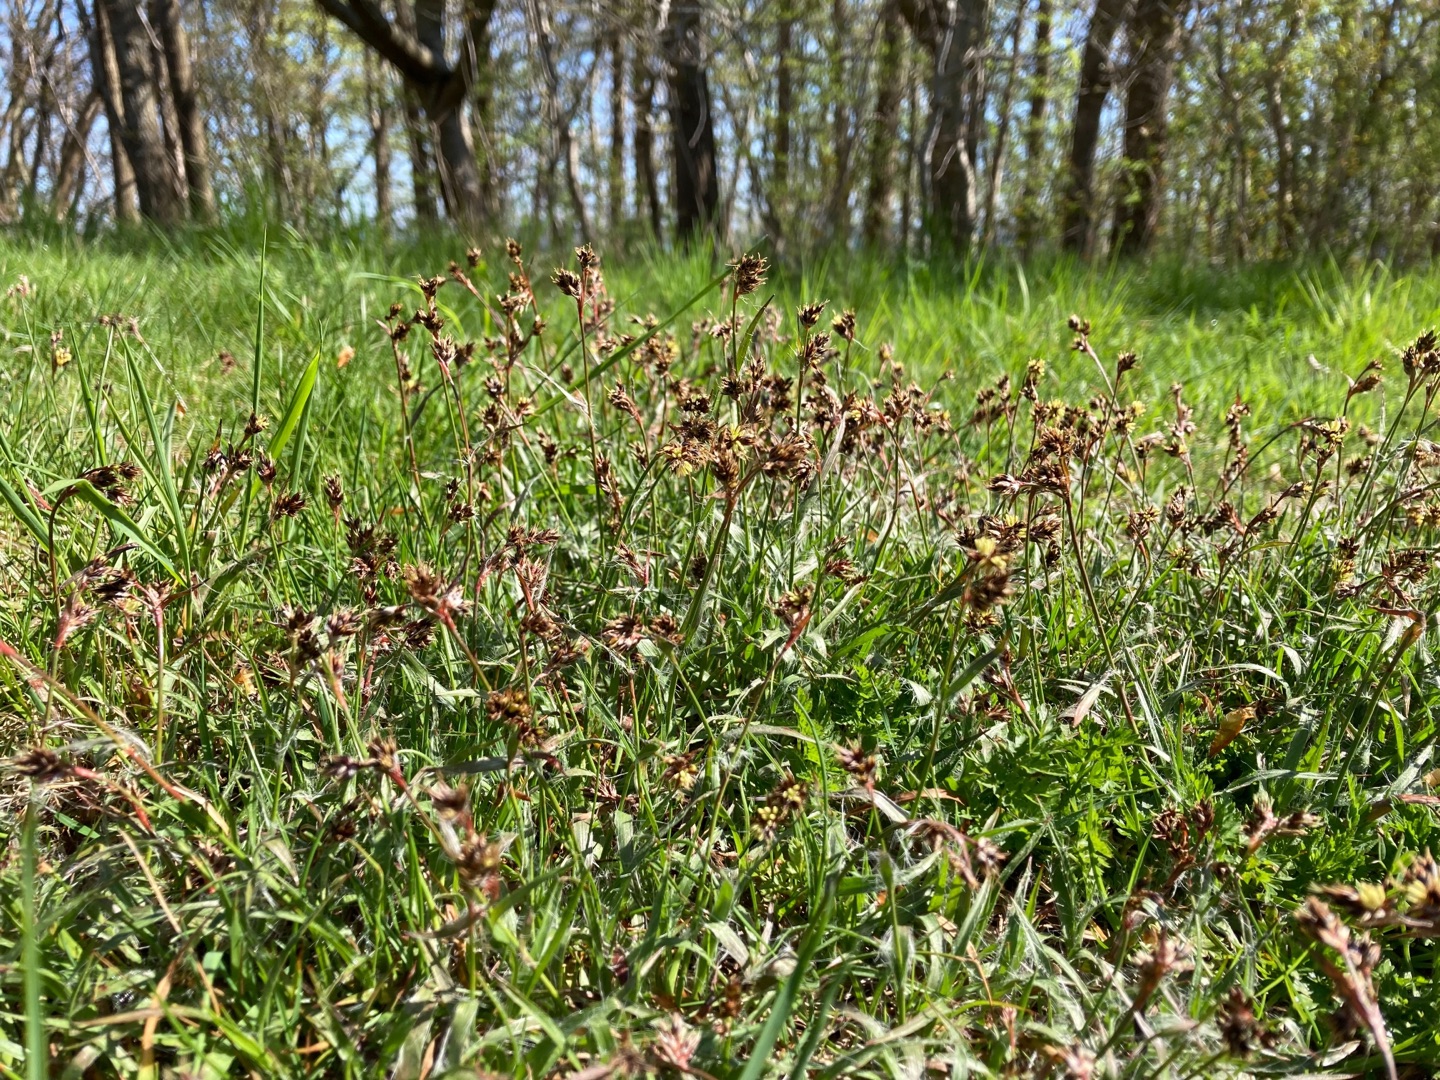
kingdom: Plantae
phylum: Tracheophyta
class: Liliopsida
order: Poales
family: Juncaceae
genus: Luzula
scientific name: Luzula campestris
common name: Mark-frytle
